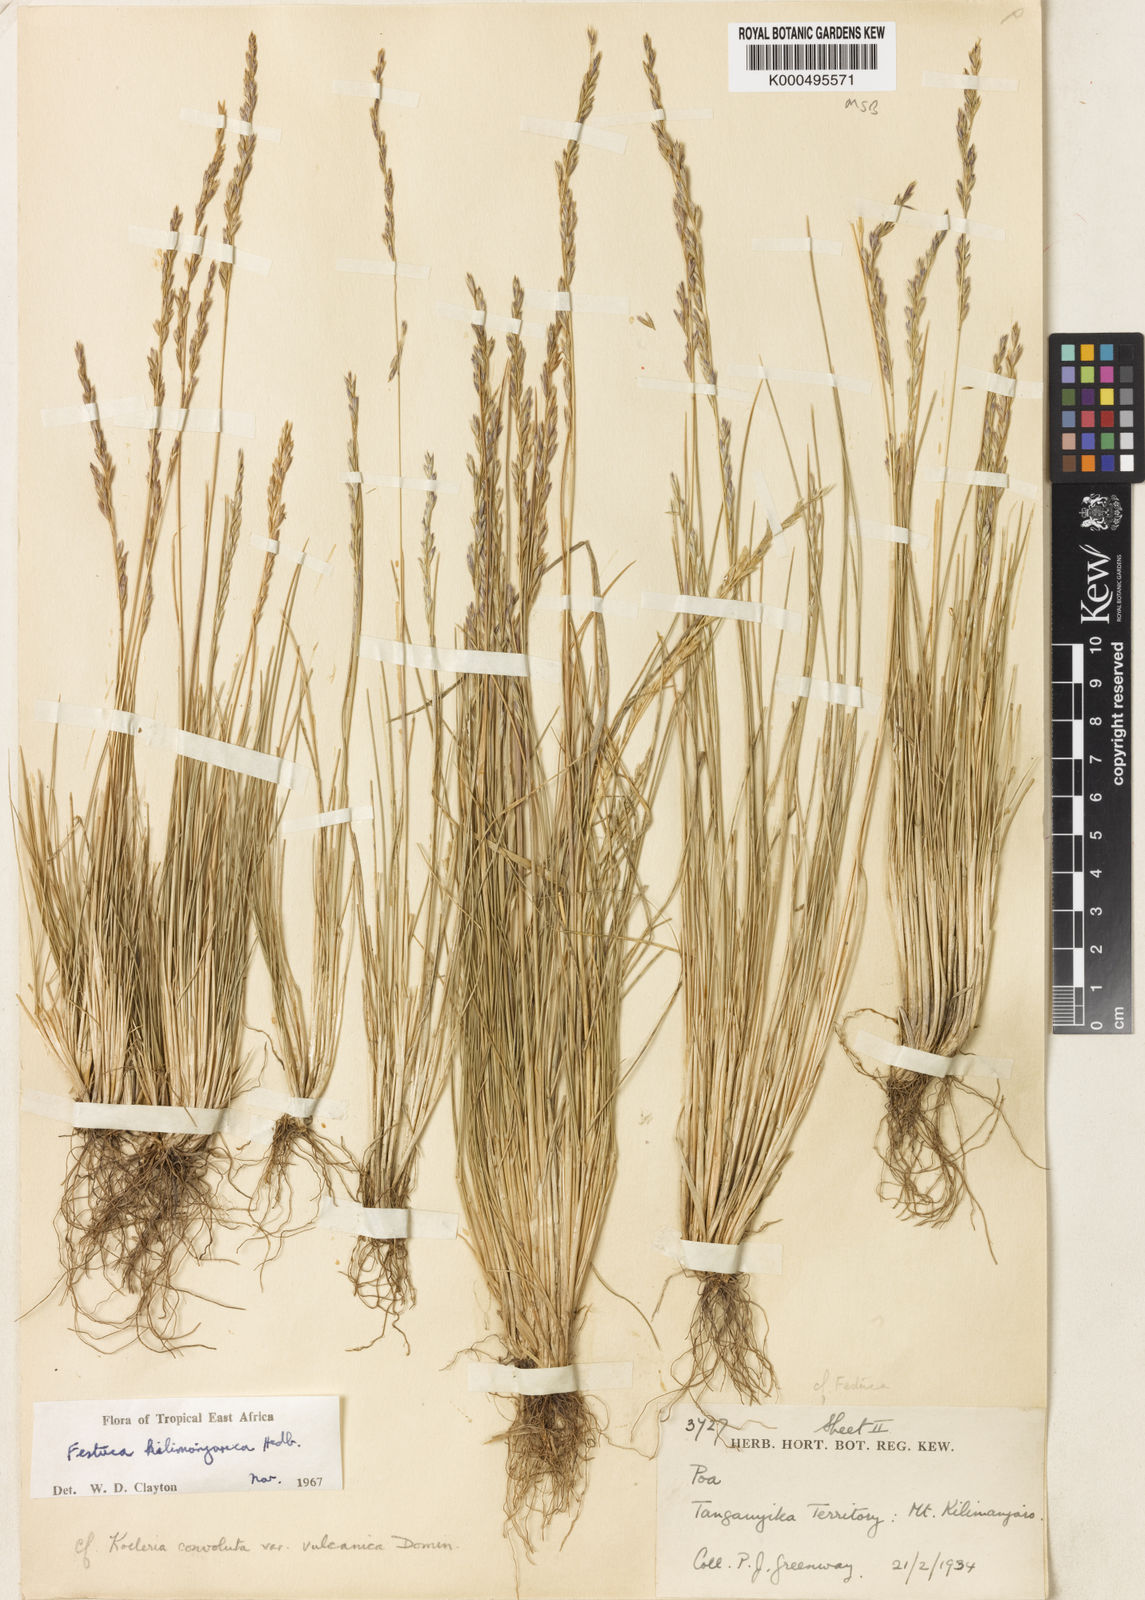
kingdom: Plantae
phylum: Tracheophyta
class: Liliopsida
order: Poales
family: Poaceae
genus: Poa
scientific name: Poa kilimanjarica
